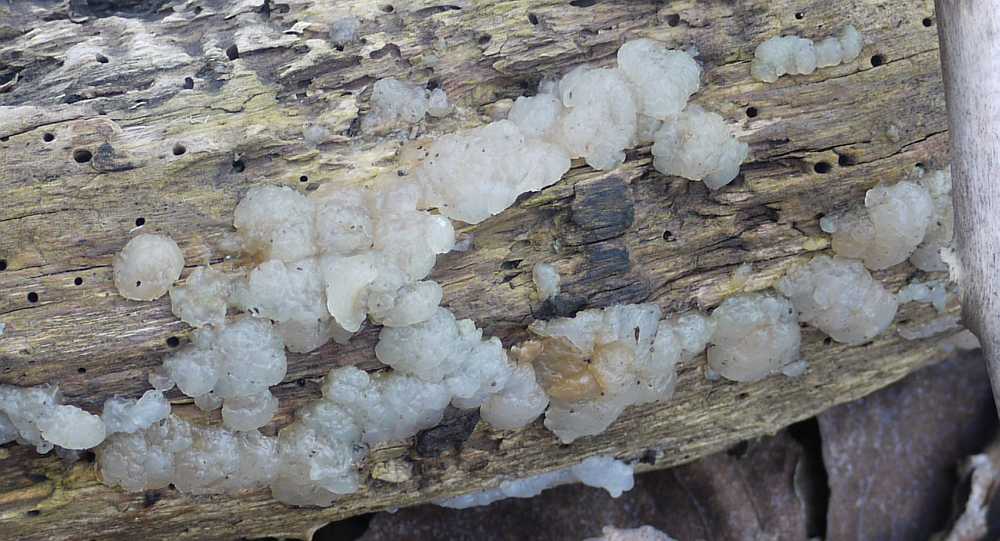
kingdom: Fungi
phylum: Basidiomycota
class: Agaricomycetes
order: Auriculariales
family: Hyaloriaceae
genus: Myxarium
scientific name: Myxarium nucleatum
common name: klar bævretop
